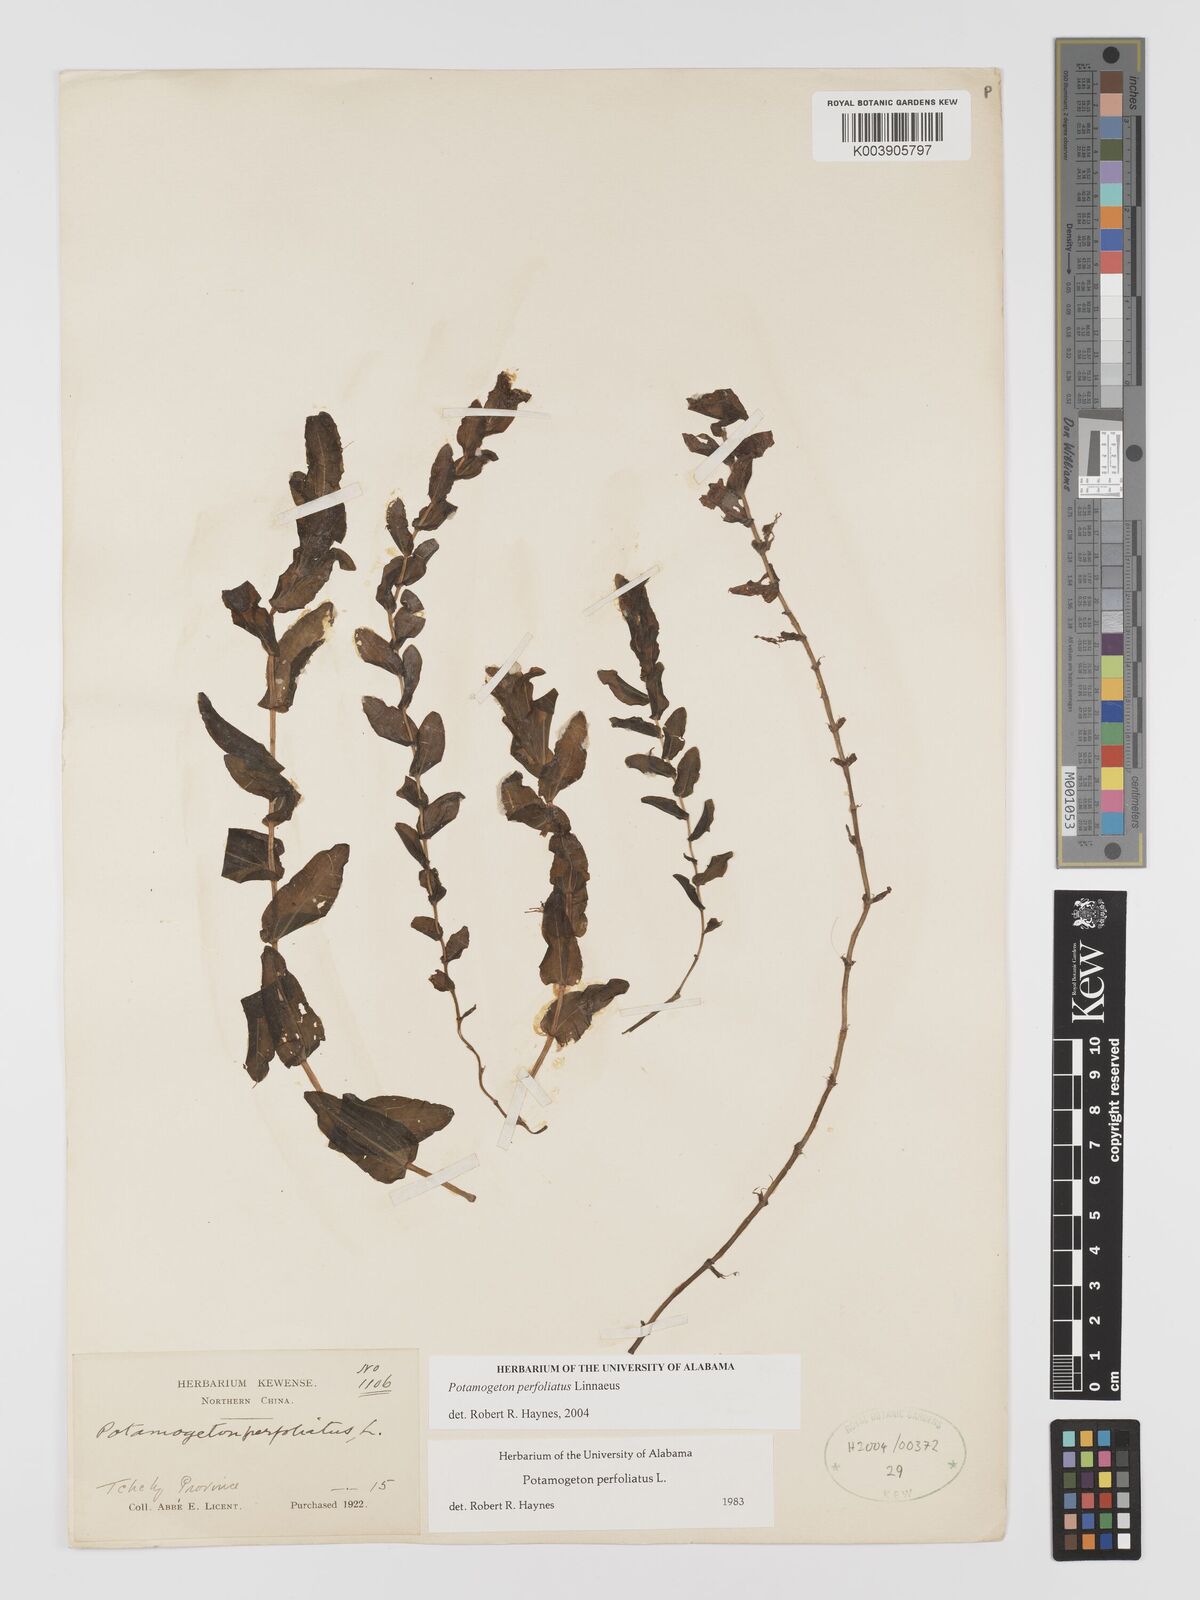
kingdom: Plantae
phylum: Tracheophyta
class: Liliopsida
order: Alismatales
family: Potamogetonaceae
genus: Potamogeton
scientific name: Potamogeton perfoliatus
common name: Perfoliate pondweed
